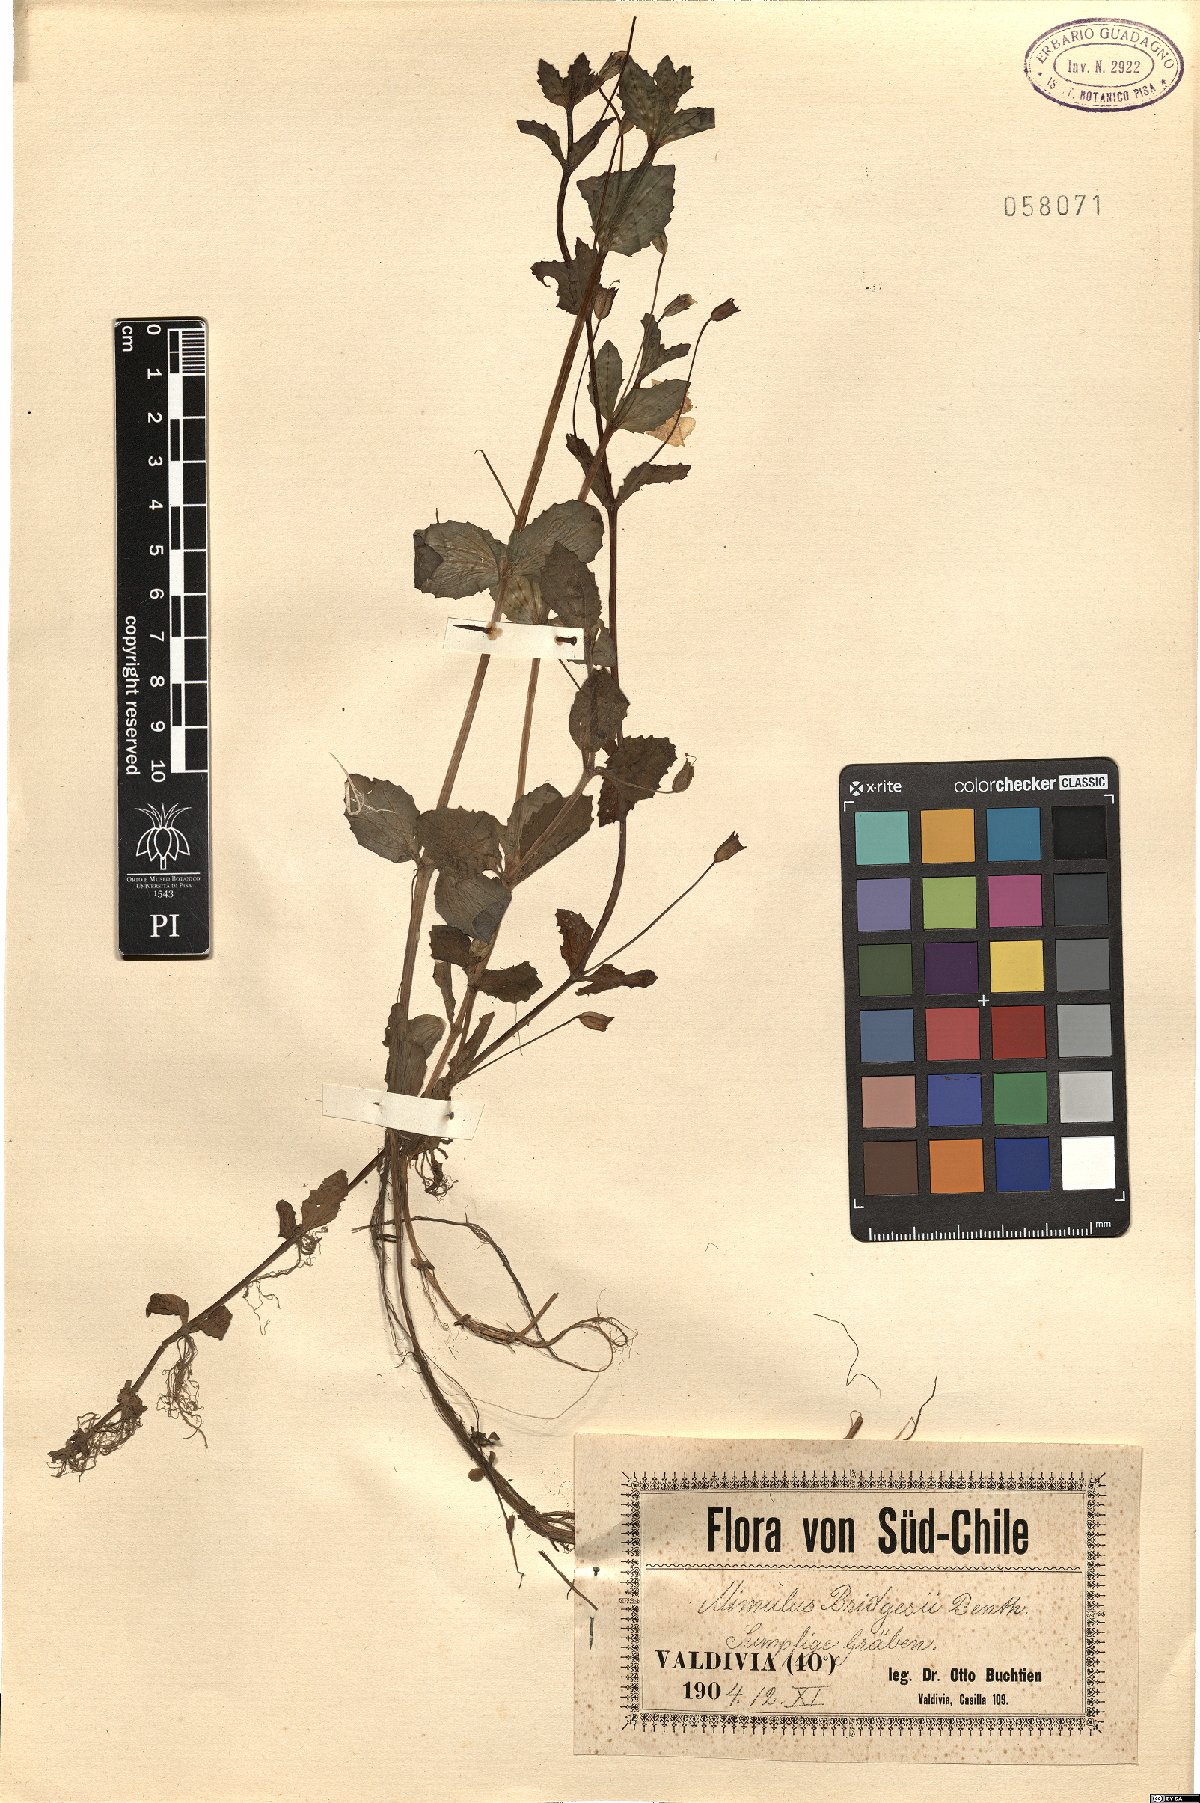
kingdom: Plantae
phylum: Tracheophyta
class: Magnoliopsida
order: Lamiales
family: Phrymaceae
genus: Mimulus
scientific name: Mimulus
